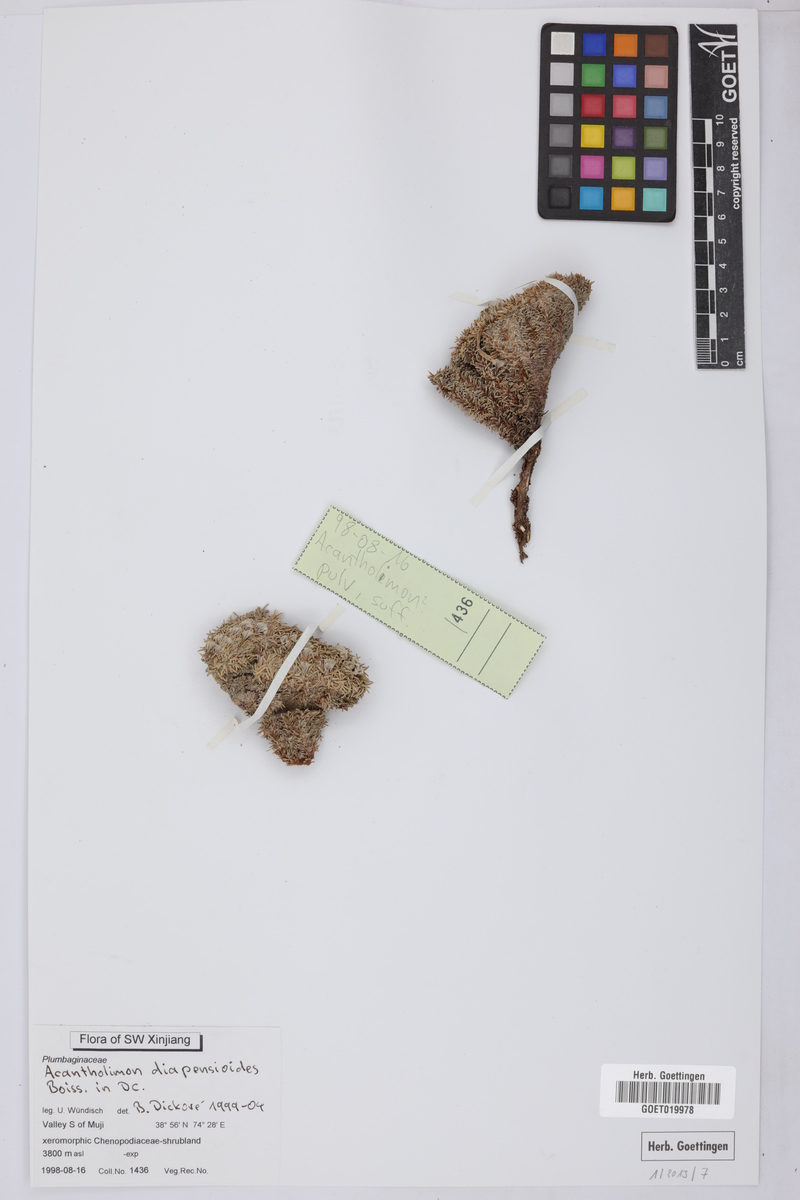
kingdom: Plantae
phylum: Tracheophyta
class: Magnoliopsida
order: Caryophyllales
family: Plumbaginaceae
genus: Acantholimon
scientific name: Acantholimon diapensioides
